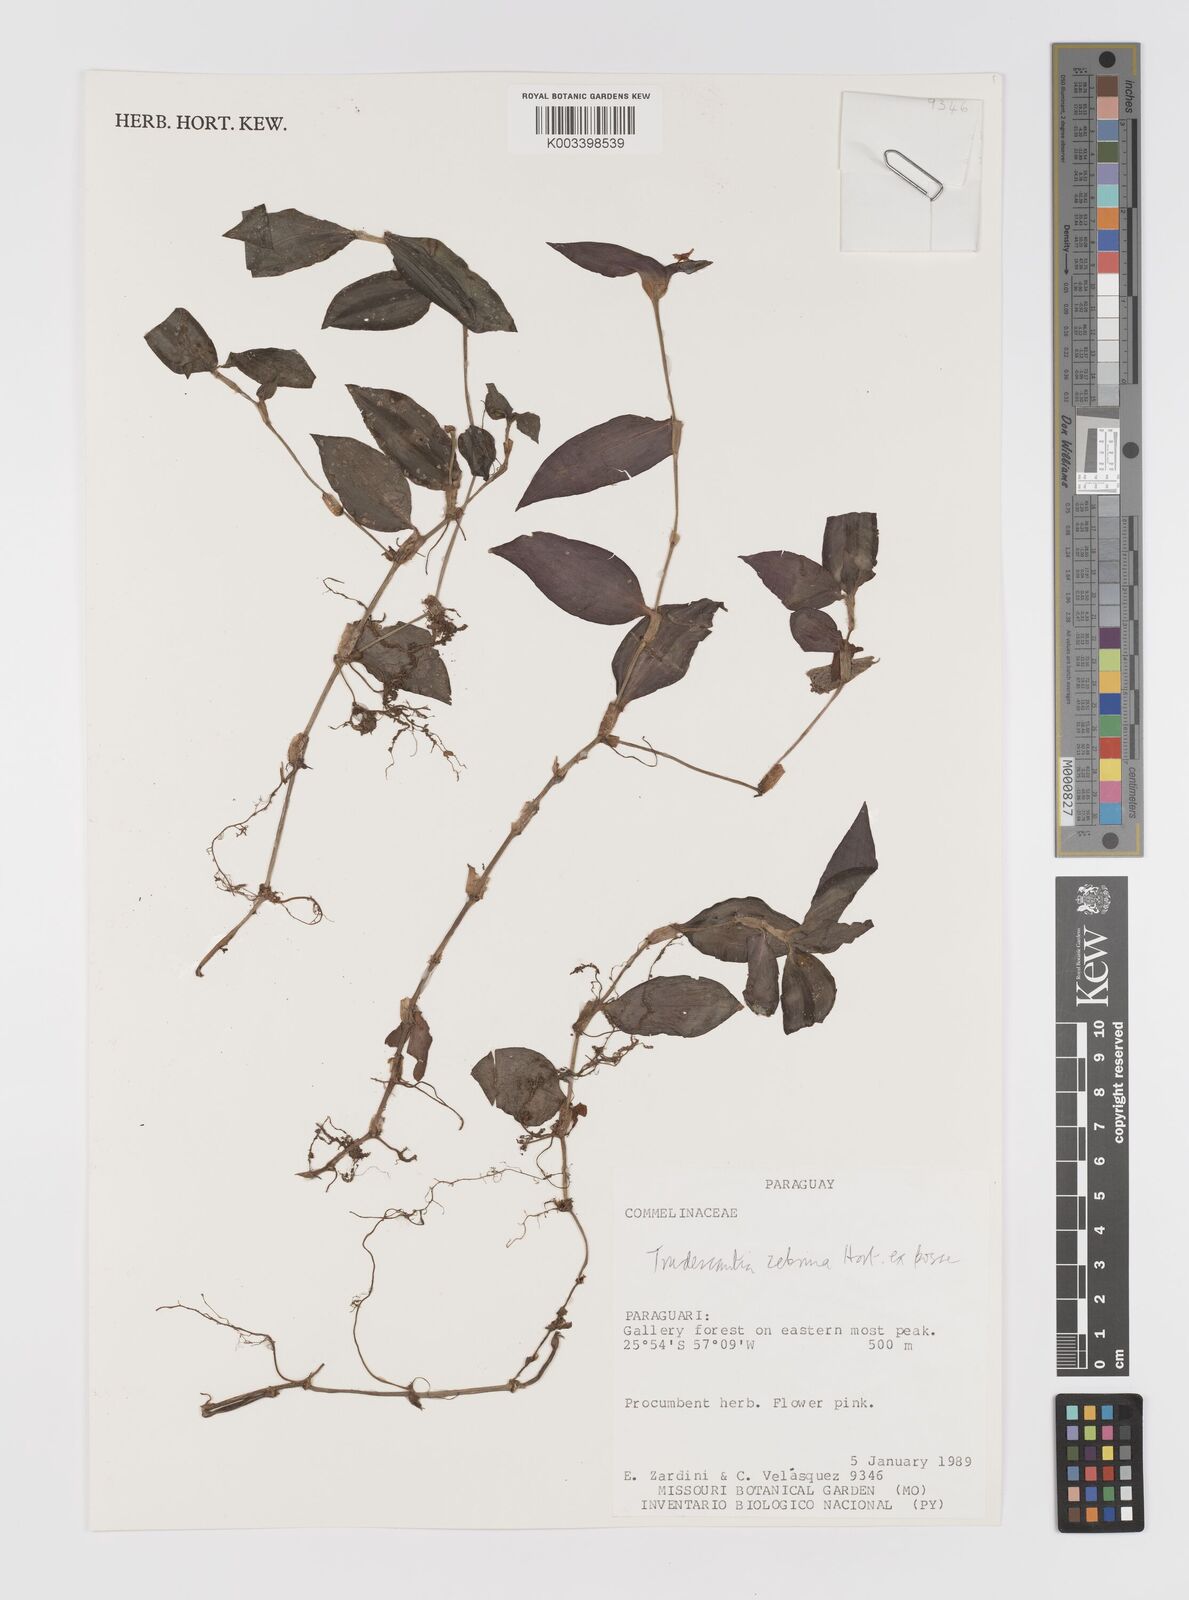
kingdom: Plantae
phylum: Tracheophyta
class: Liliopsida
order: Commelinales
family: Commelinaceae
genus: Tradescantia
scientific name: Tradescantia zebrina
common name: Inchplant
